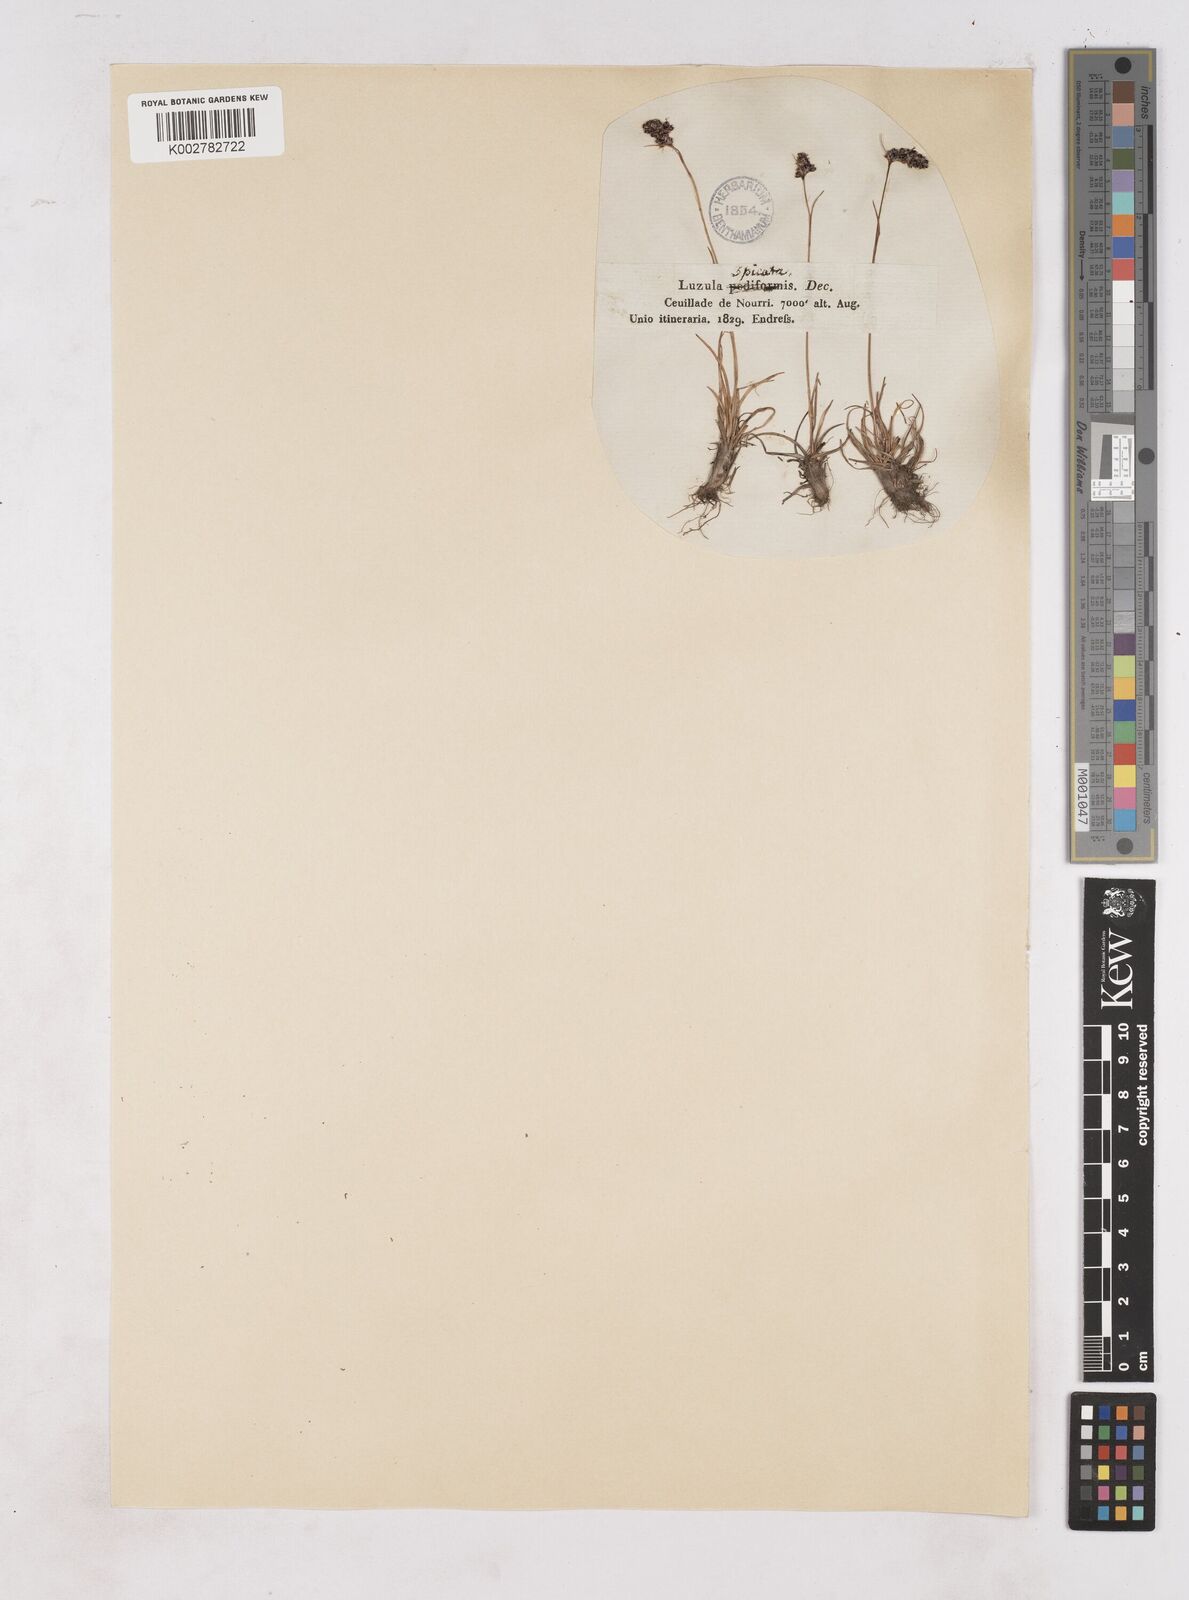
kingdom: Plantae
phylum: Tracheophyta
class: Liliopsida
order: Poales
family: Juncaceae
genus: Luzula
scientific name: Luzula spicata
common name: Spiked wood-rush
